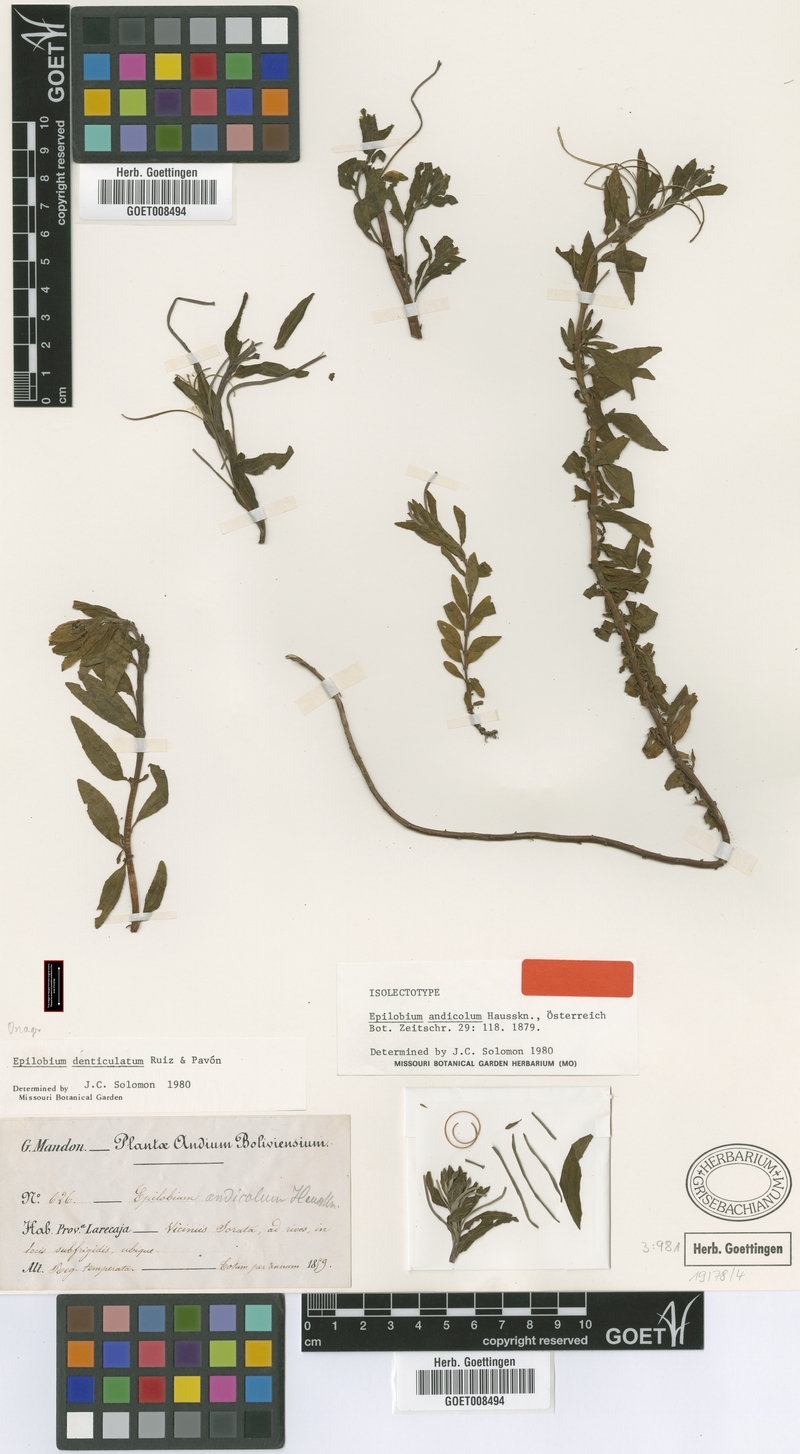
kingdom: Plantae
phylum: Tracheophyta
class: Magnoliopsida
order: Myrtales
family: Onagraceae
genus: Epilobium
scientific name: Epilobium denticulatum
